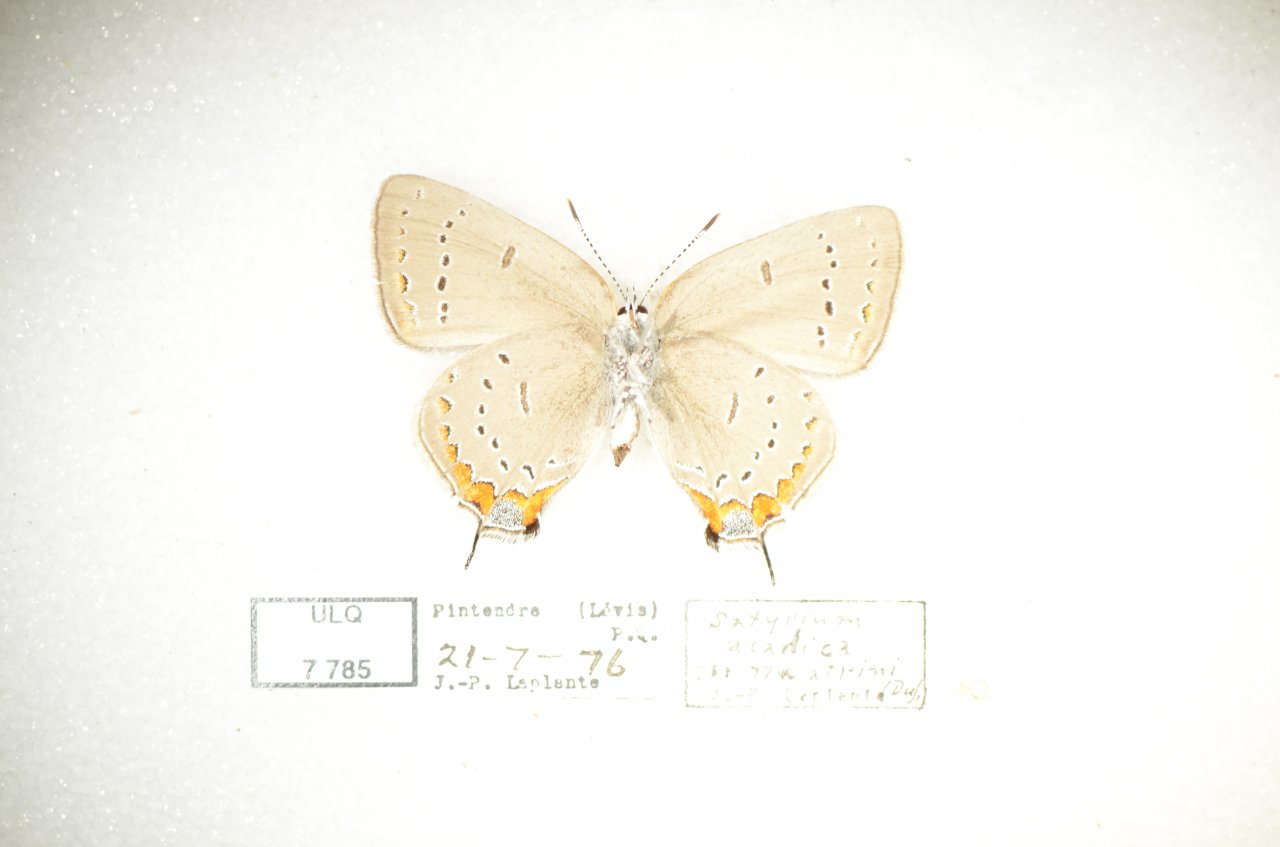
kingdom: Animalia
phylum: Arthropoda
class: Insecta
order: Lepidoptera
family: Lycaenidae
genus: Strymon
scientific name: Strymon acadica
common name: Acadian Hairstreak
